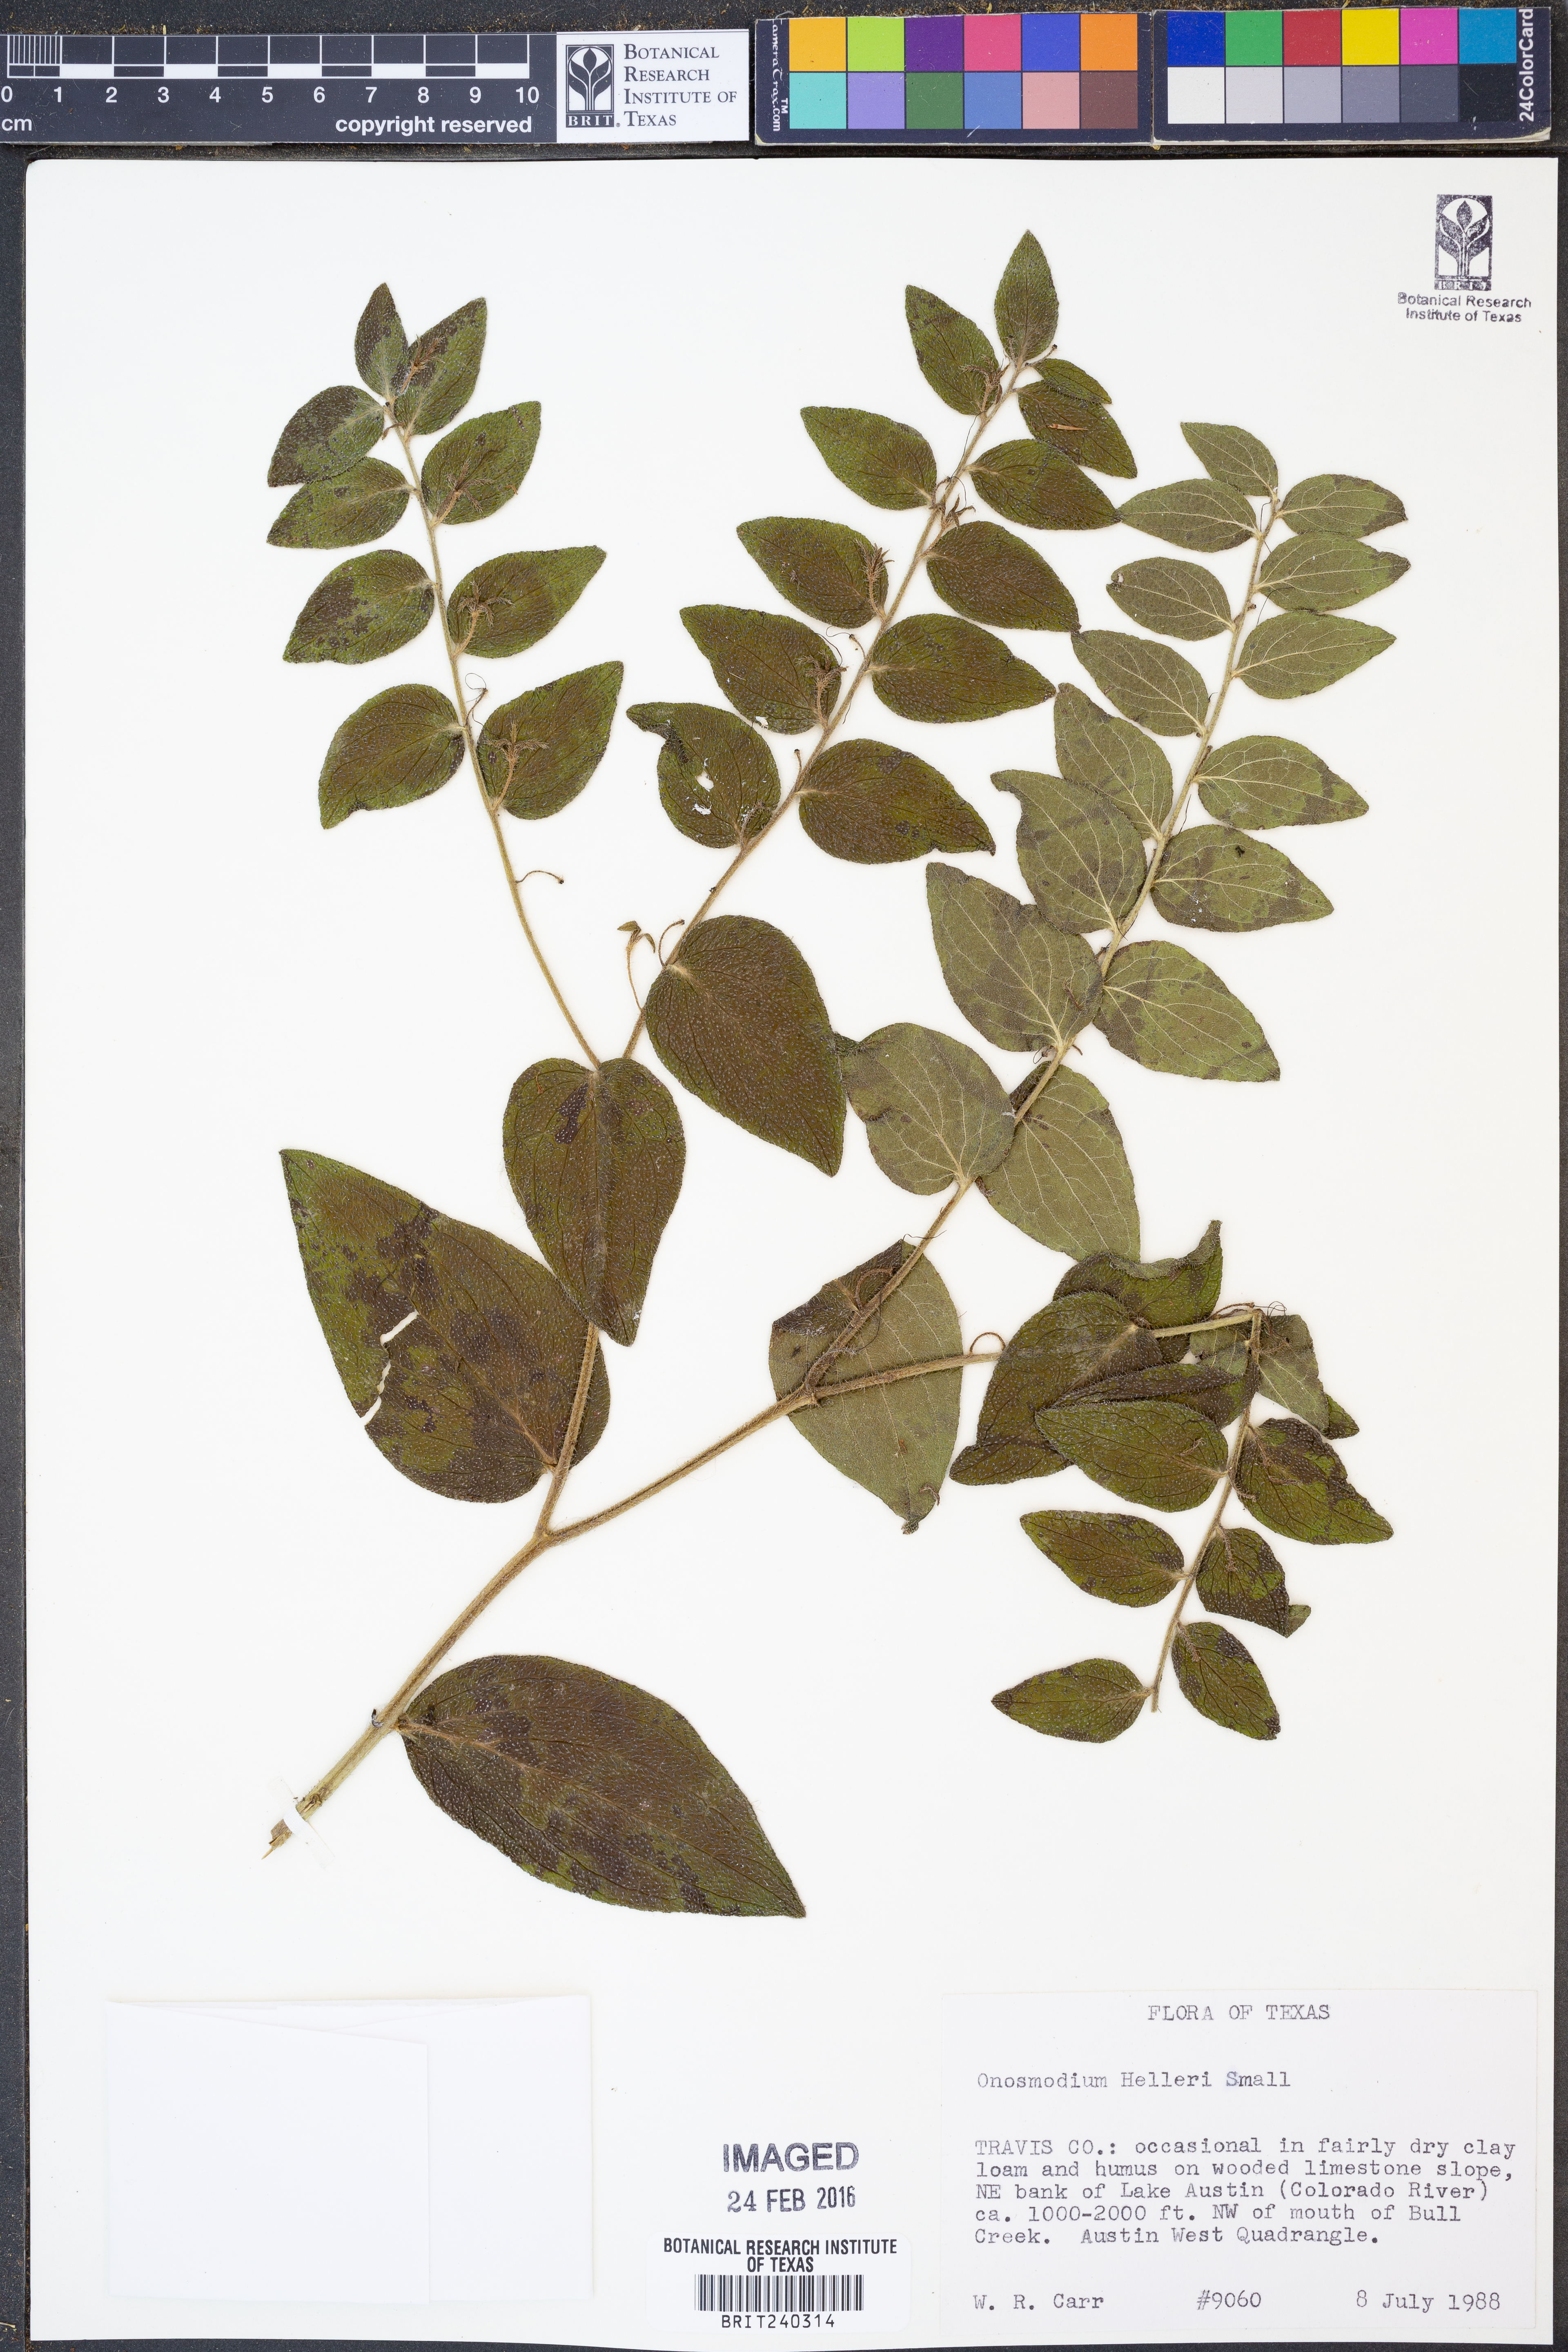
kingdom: Plantae
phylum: Tracheophyta
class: Magnoliopsida
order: Boraginales
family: Boraginaceae
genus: Lithospermum
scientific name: Lithospermum helleri
